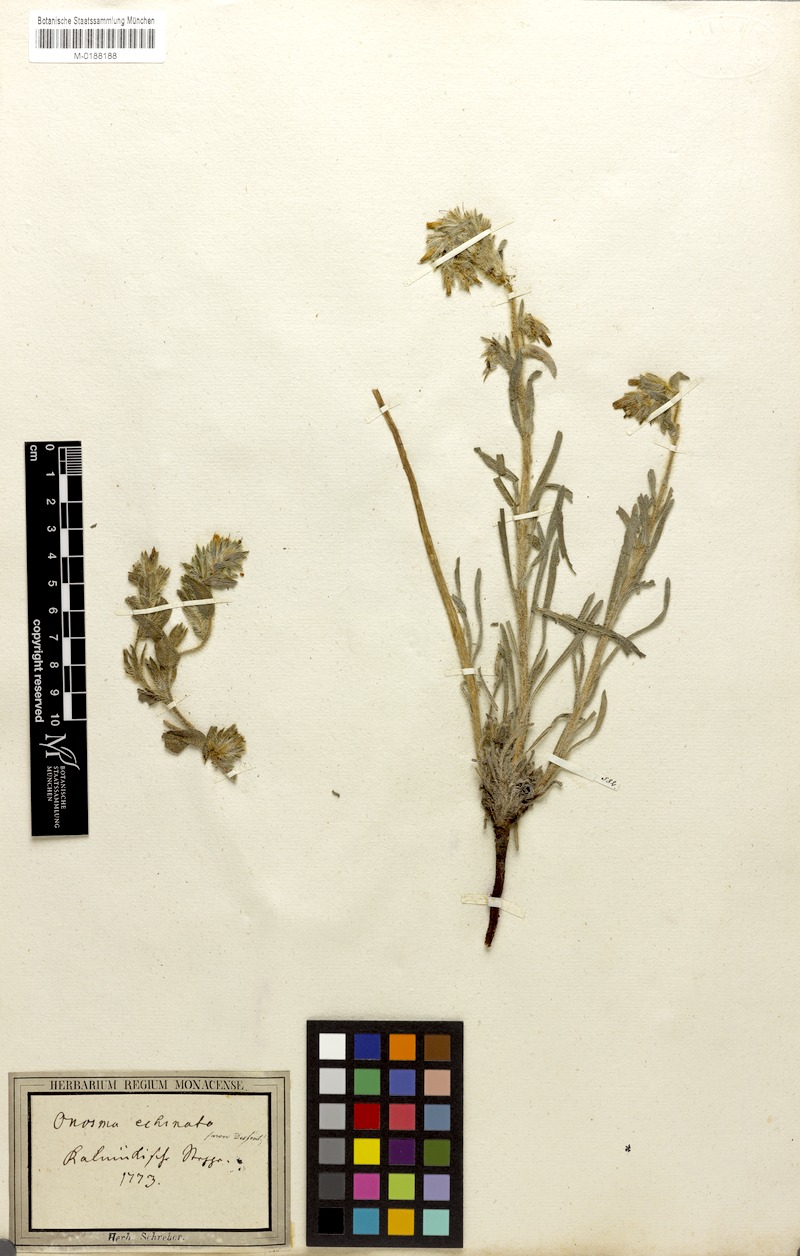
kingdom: Plantae
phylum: Tracheophyta
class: Magnoliopsida
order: Boraginales
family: Boraginaceae
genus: Onosma
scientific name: Onosma tinctoria
